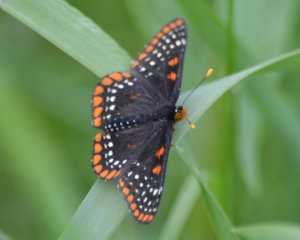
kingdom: Animalia
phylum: Arthropoda
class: Insecta
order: Lepidoptera
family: Nymphalidae
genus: Euphydryas
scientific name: Euphydryas phaeton
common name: Baltimore Checkerspot
